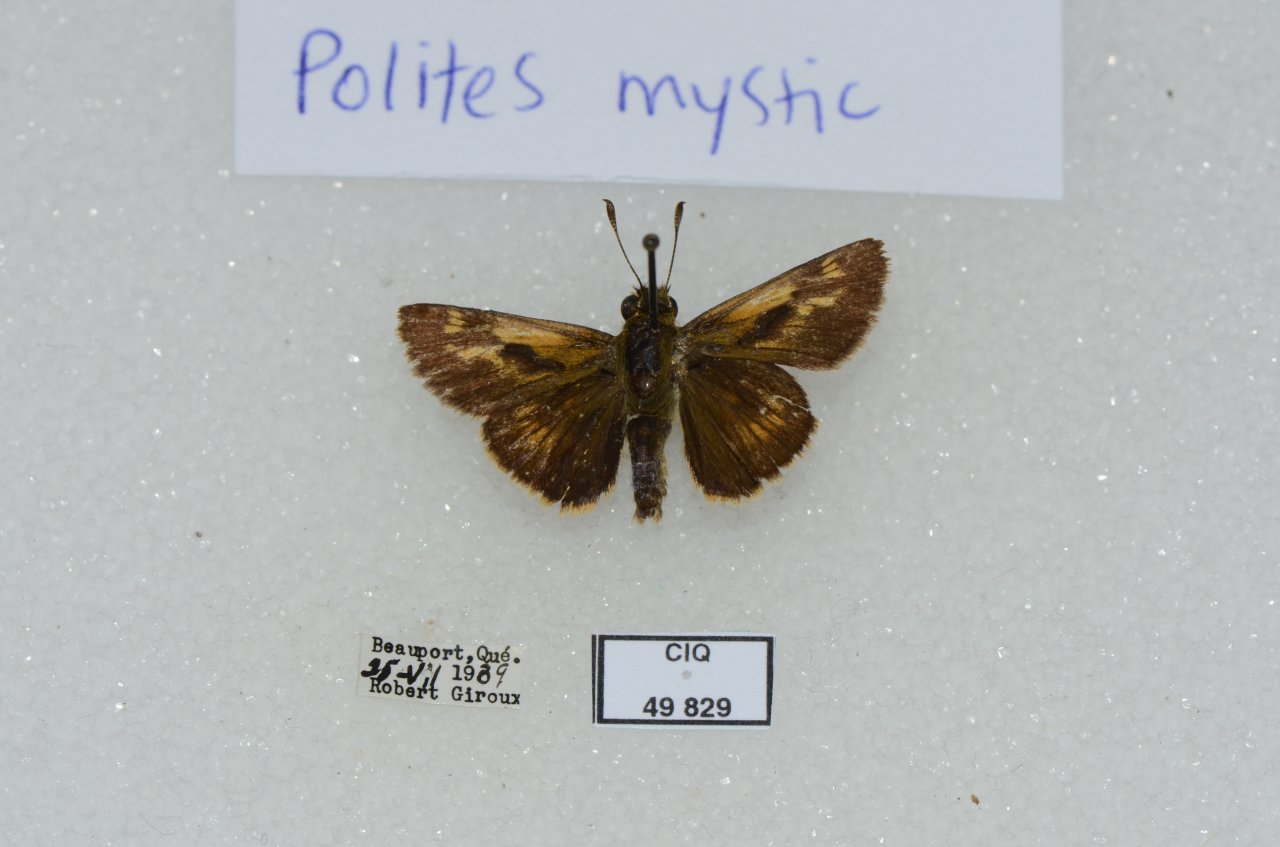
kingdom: Animalia
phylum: Arthropoda
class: Insecta
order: Lepidoptera
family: Hesperiidae
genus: Polites
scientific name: Polites
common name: Long Dash Skipper
